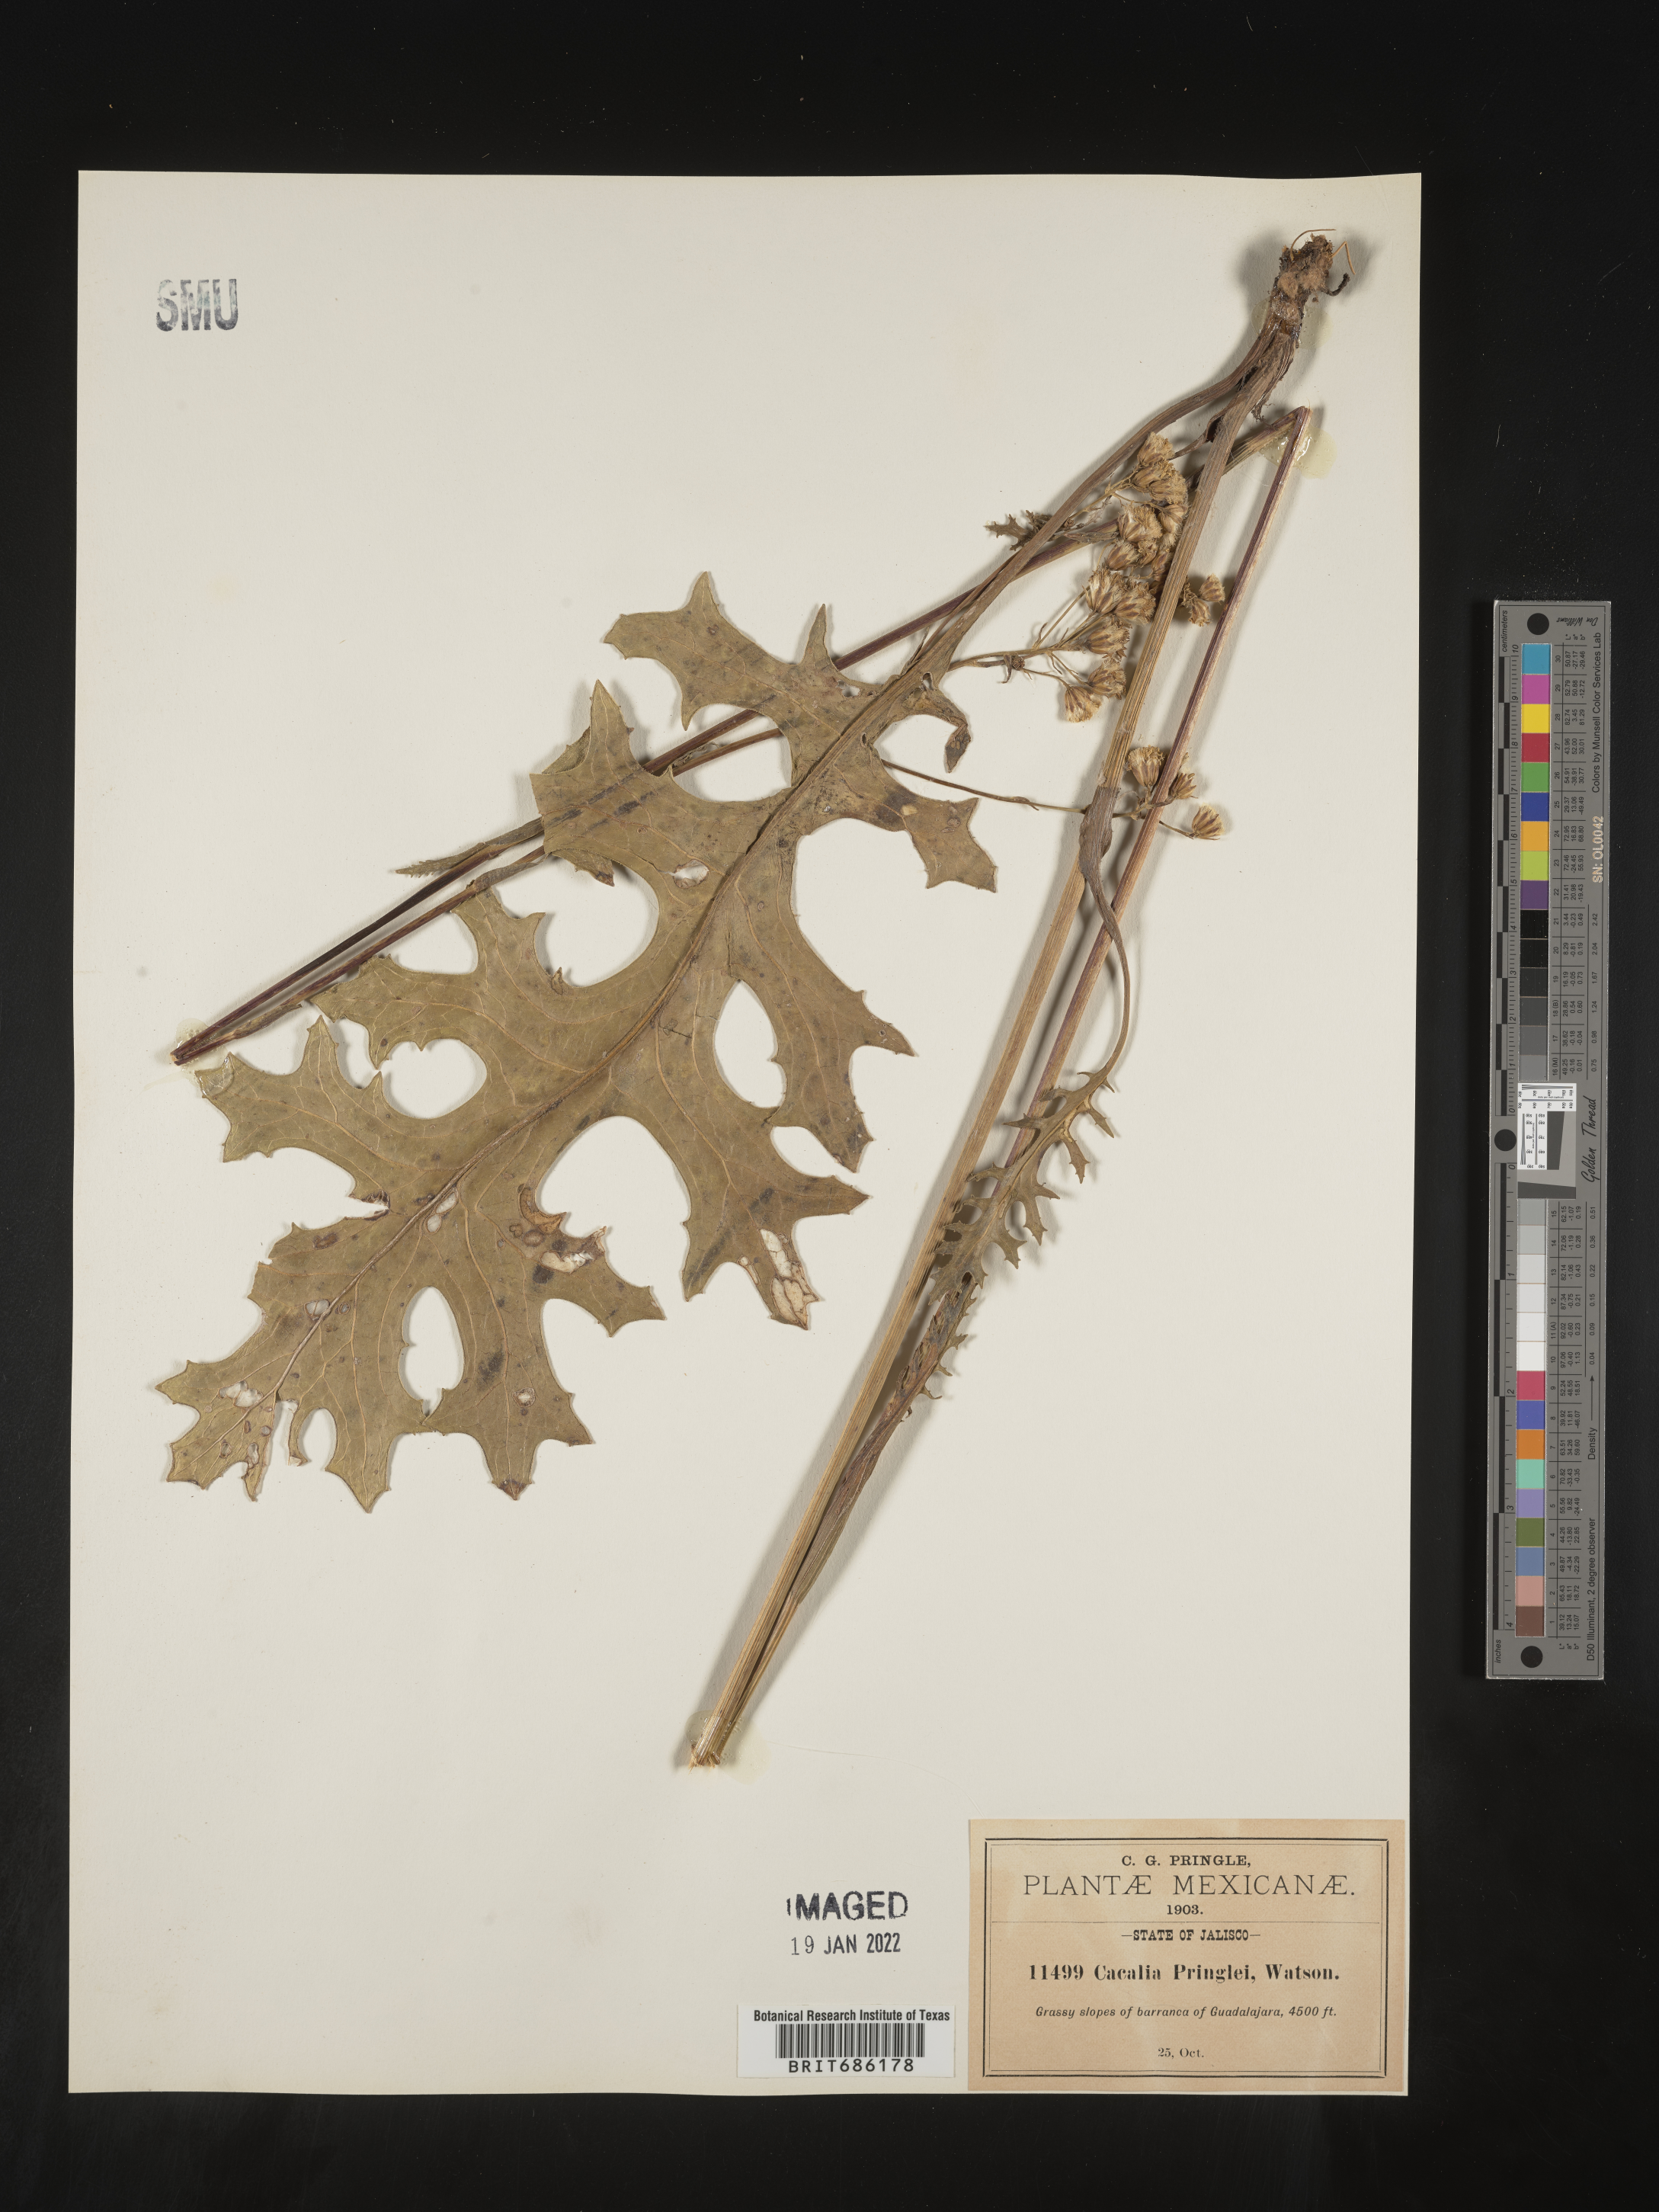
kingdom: Plantae
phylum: Tracheophyta
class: Magnoliopsida
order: Asterales
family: Asteraceae
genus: Cacalia
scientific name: Cacalia
